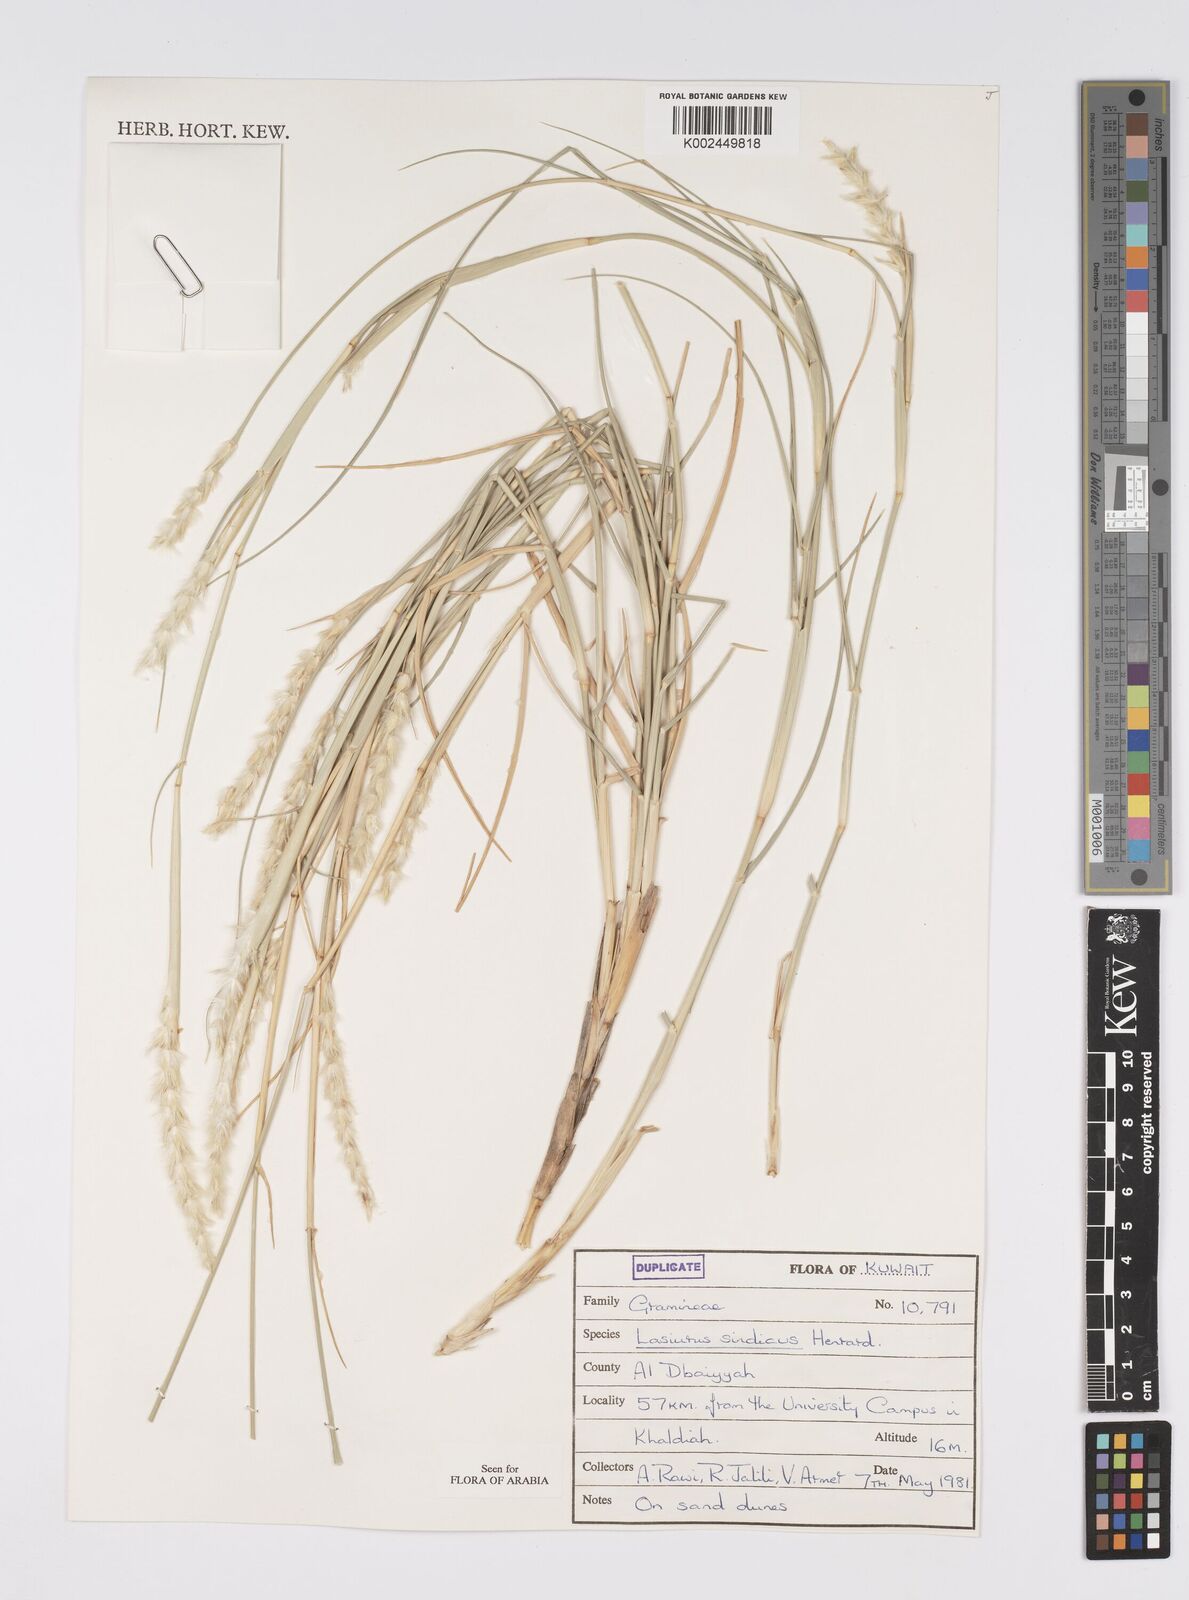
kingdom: Plantae
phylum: Tracheophyta
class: Liliopsida
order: Poales
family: Poaceae
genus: Lasiurus
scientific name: Lasiurus scindicus
